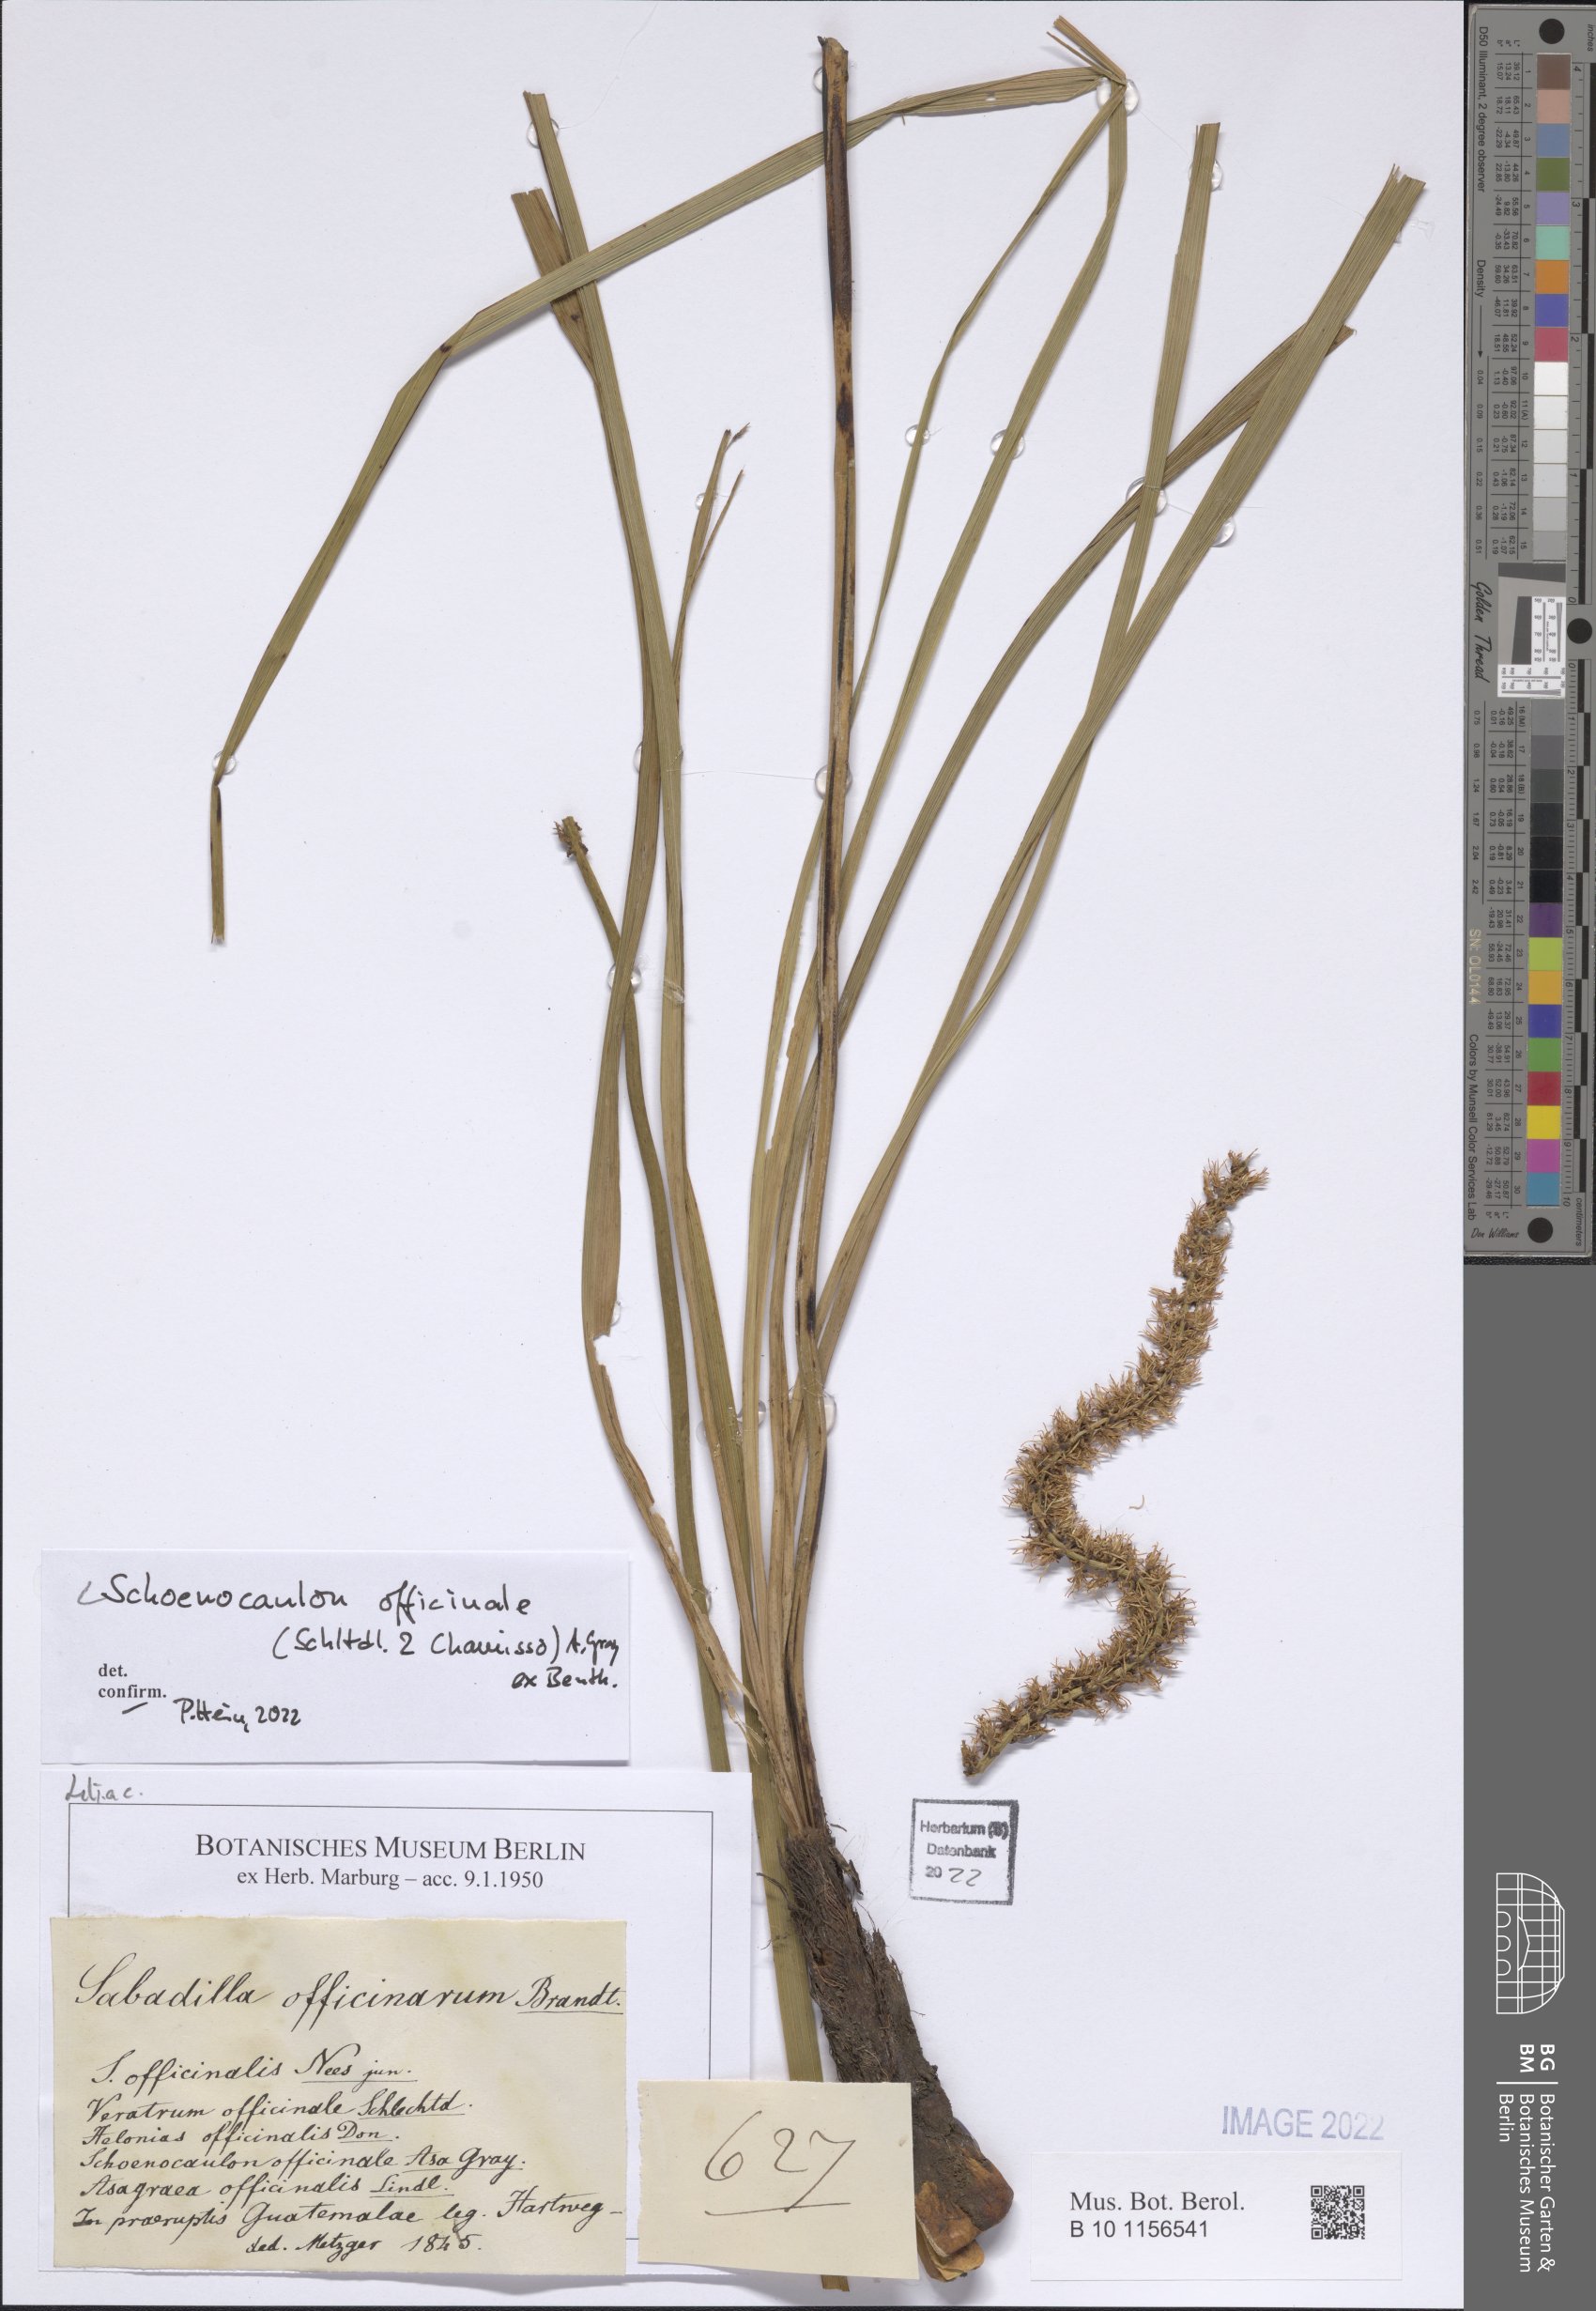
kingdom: Plantae
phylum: Tracheophyta
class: Liliopsida
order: Liliales
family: Melanthiaceae
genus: Schoenocaulon
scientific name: Schoenocaulon officinale
